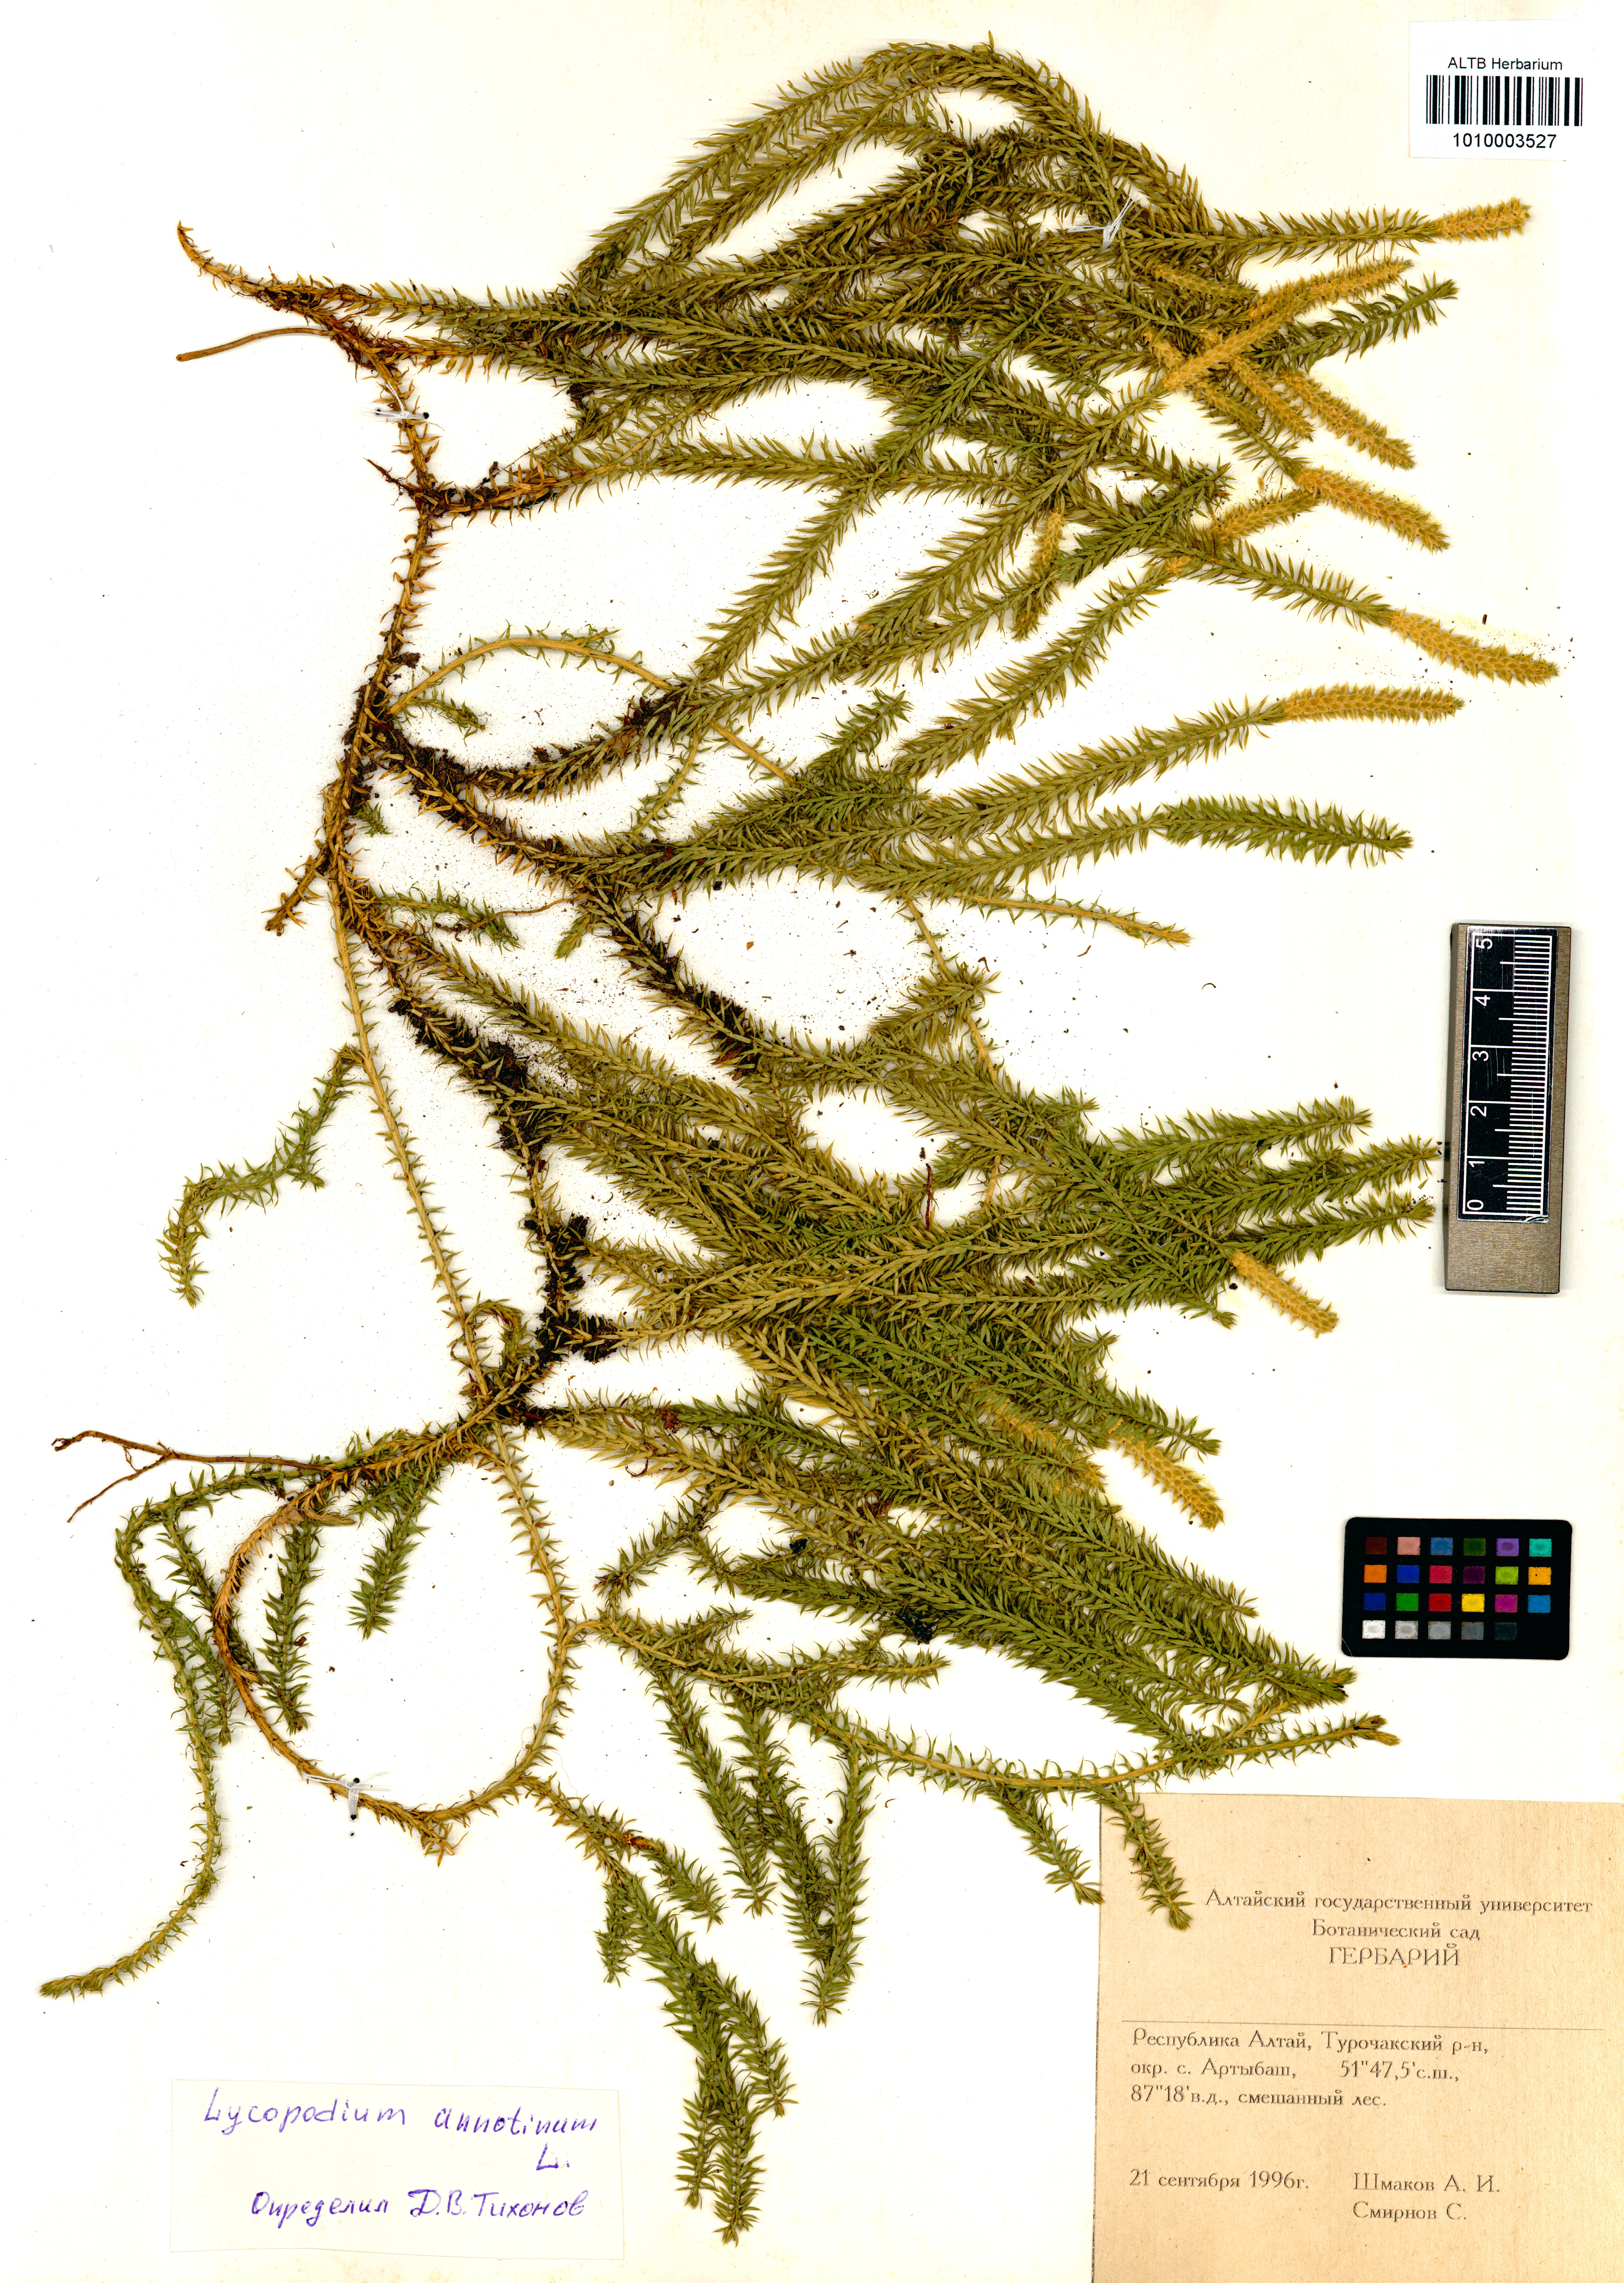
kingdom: Plantae
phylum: Tracheophyta
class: Lycopodiopsida
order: Lycopodiales
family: Lycopodiaceae
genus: Spinulum
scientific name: Spinulum annotinum
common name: Interrupted club-moss
